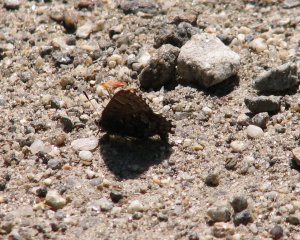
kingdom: Animalia
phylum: Arthropoda
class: Insecta
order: Lepidoptera
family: Lycaenidae
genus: Incisalia
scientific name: Incisalia niphon
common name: Eastern Pine Elfin
